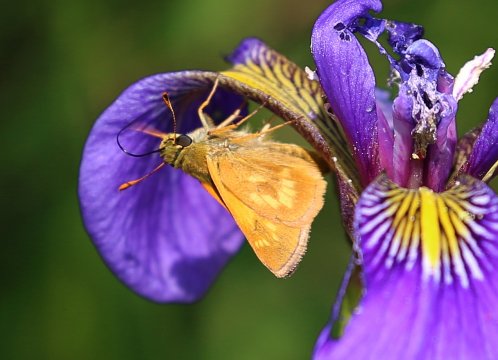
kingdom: Animalia
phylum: Arthropoda
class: Insecta
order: Lepidoptera
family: Hesperiidae
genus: Polites
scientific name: Polites
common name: Long Dash Skipper
